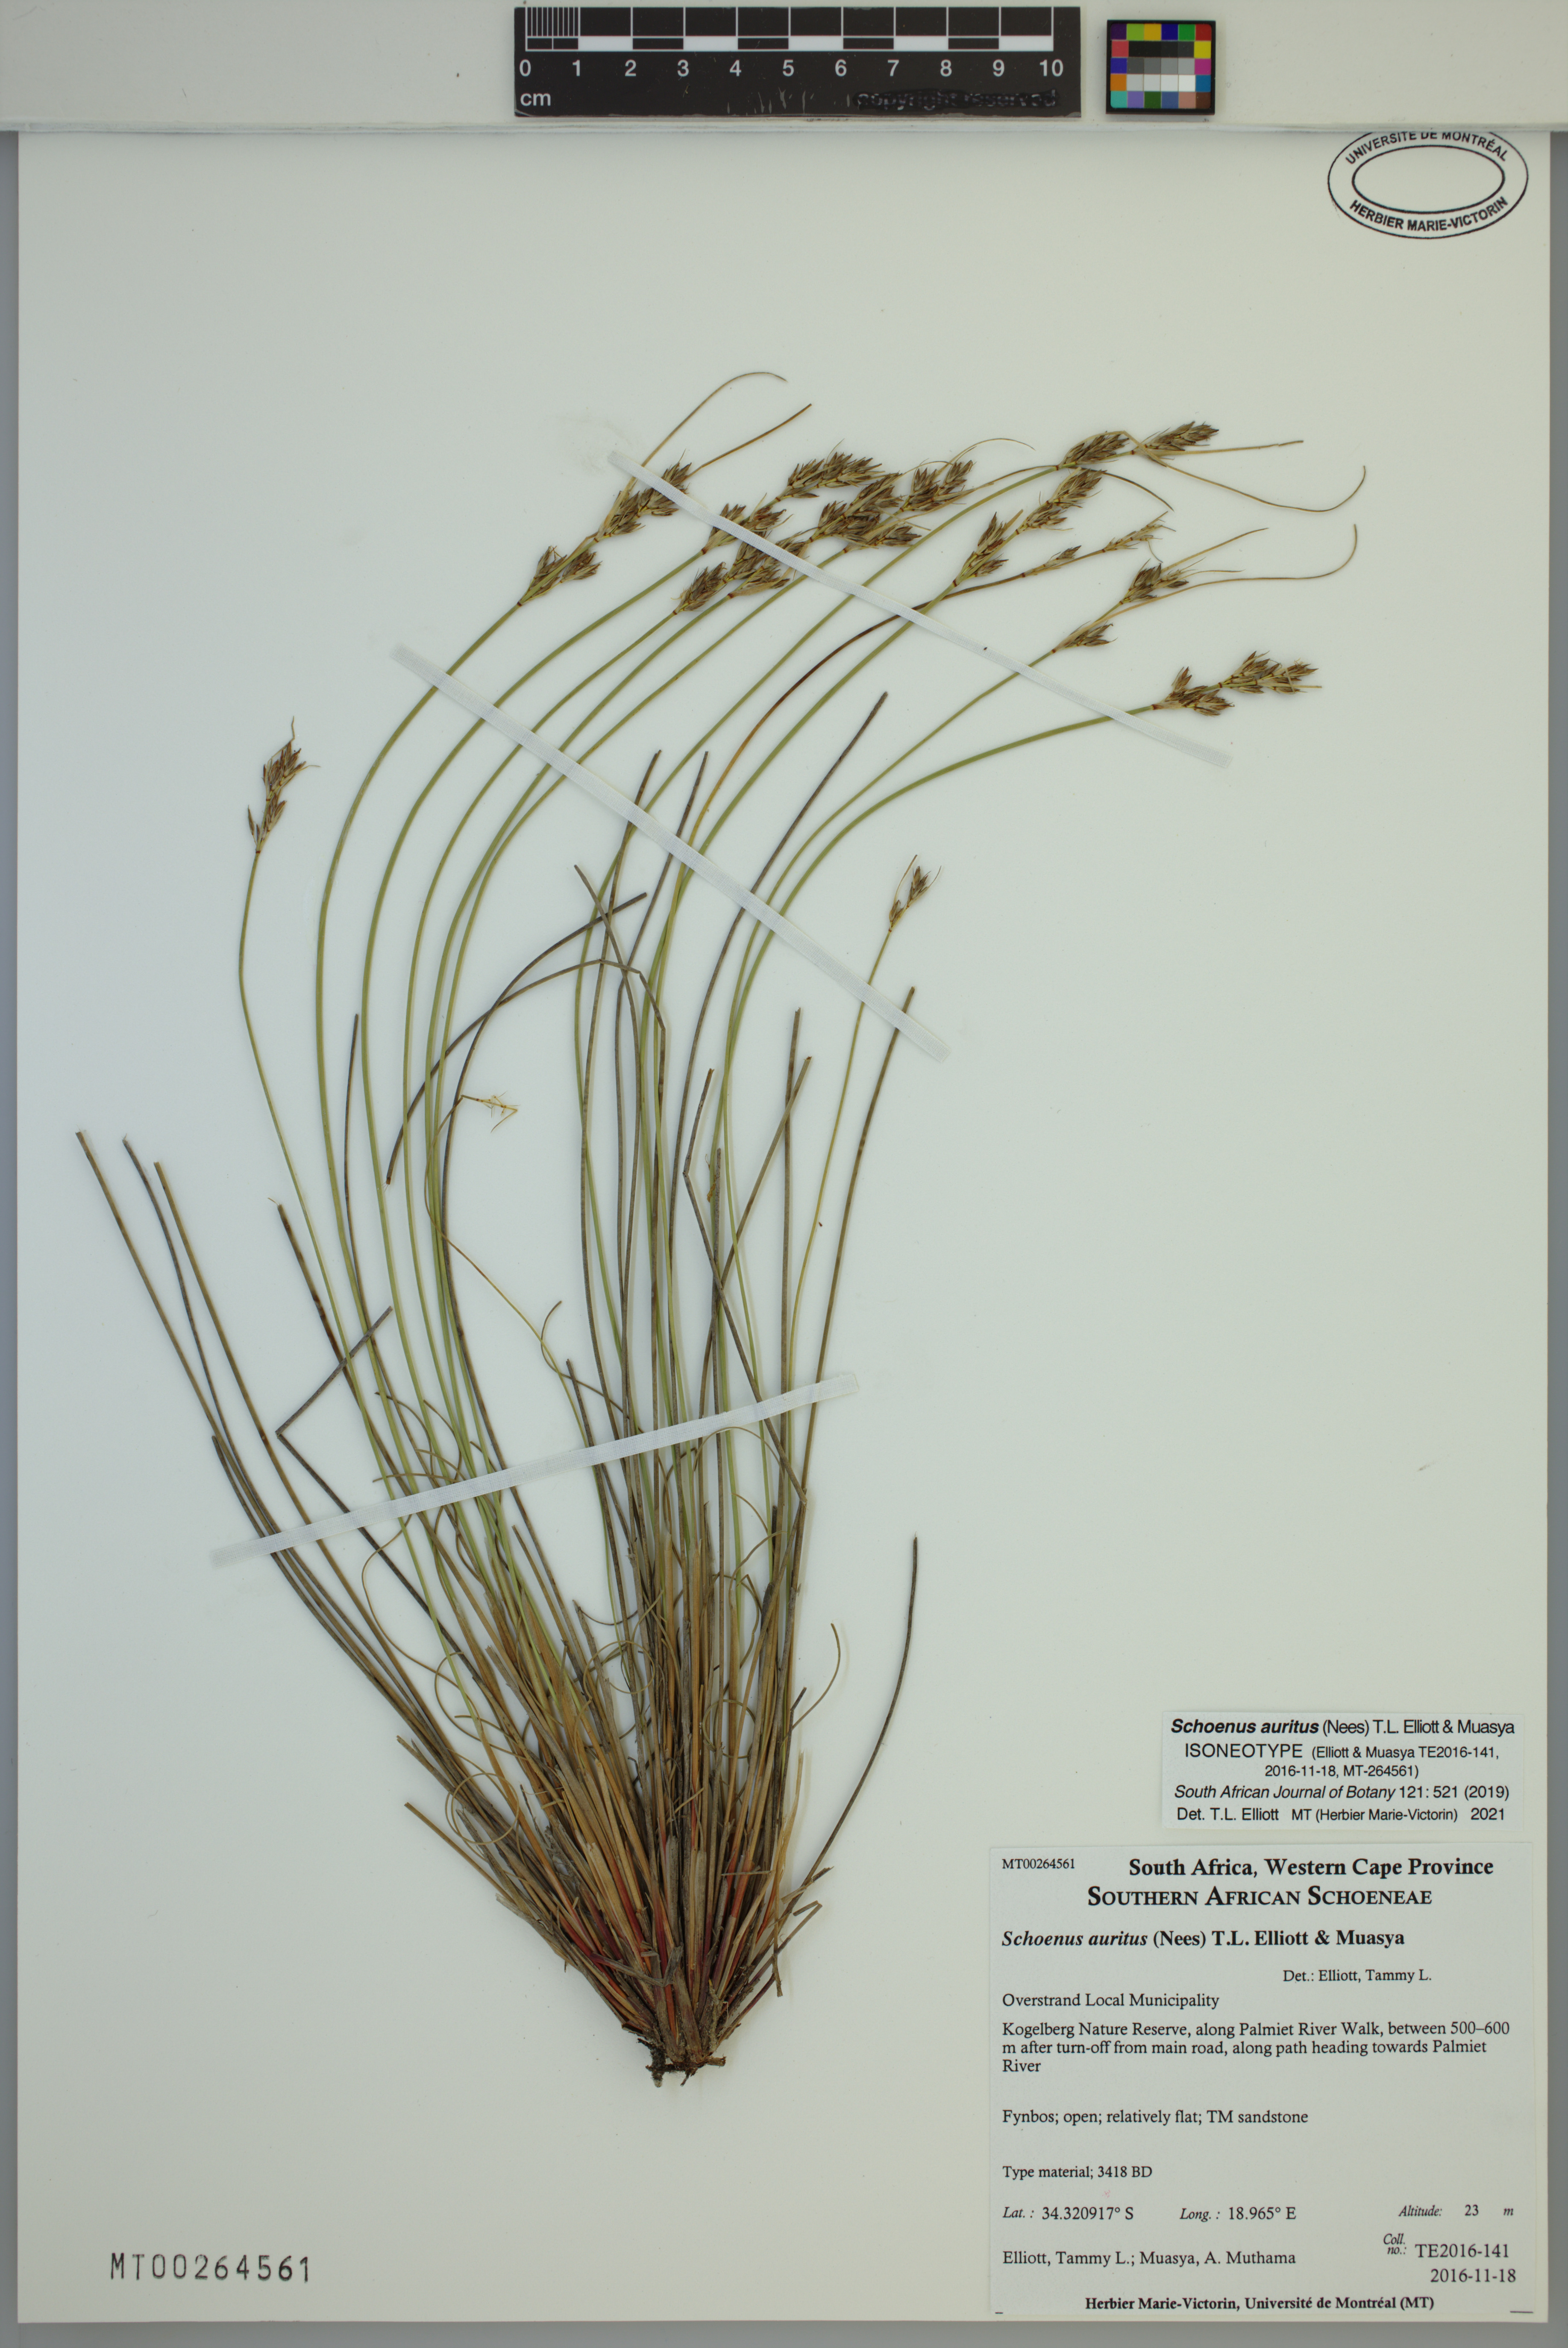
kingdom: Plantae
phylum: Tracheophyta
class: Liliopsida
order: Poales
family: Cyperaceae
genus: Schoenus
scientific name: Schoenus auritus
